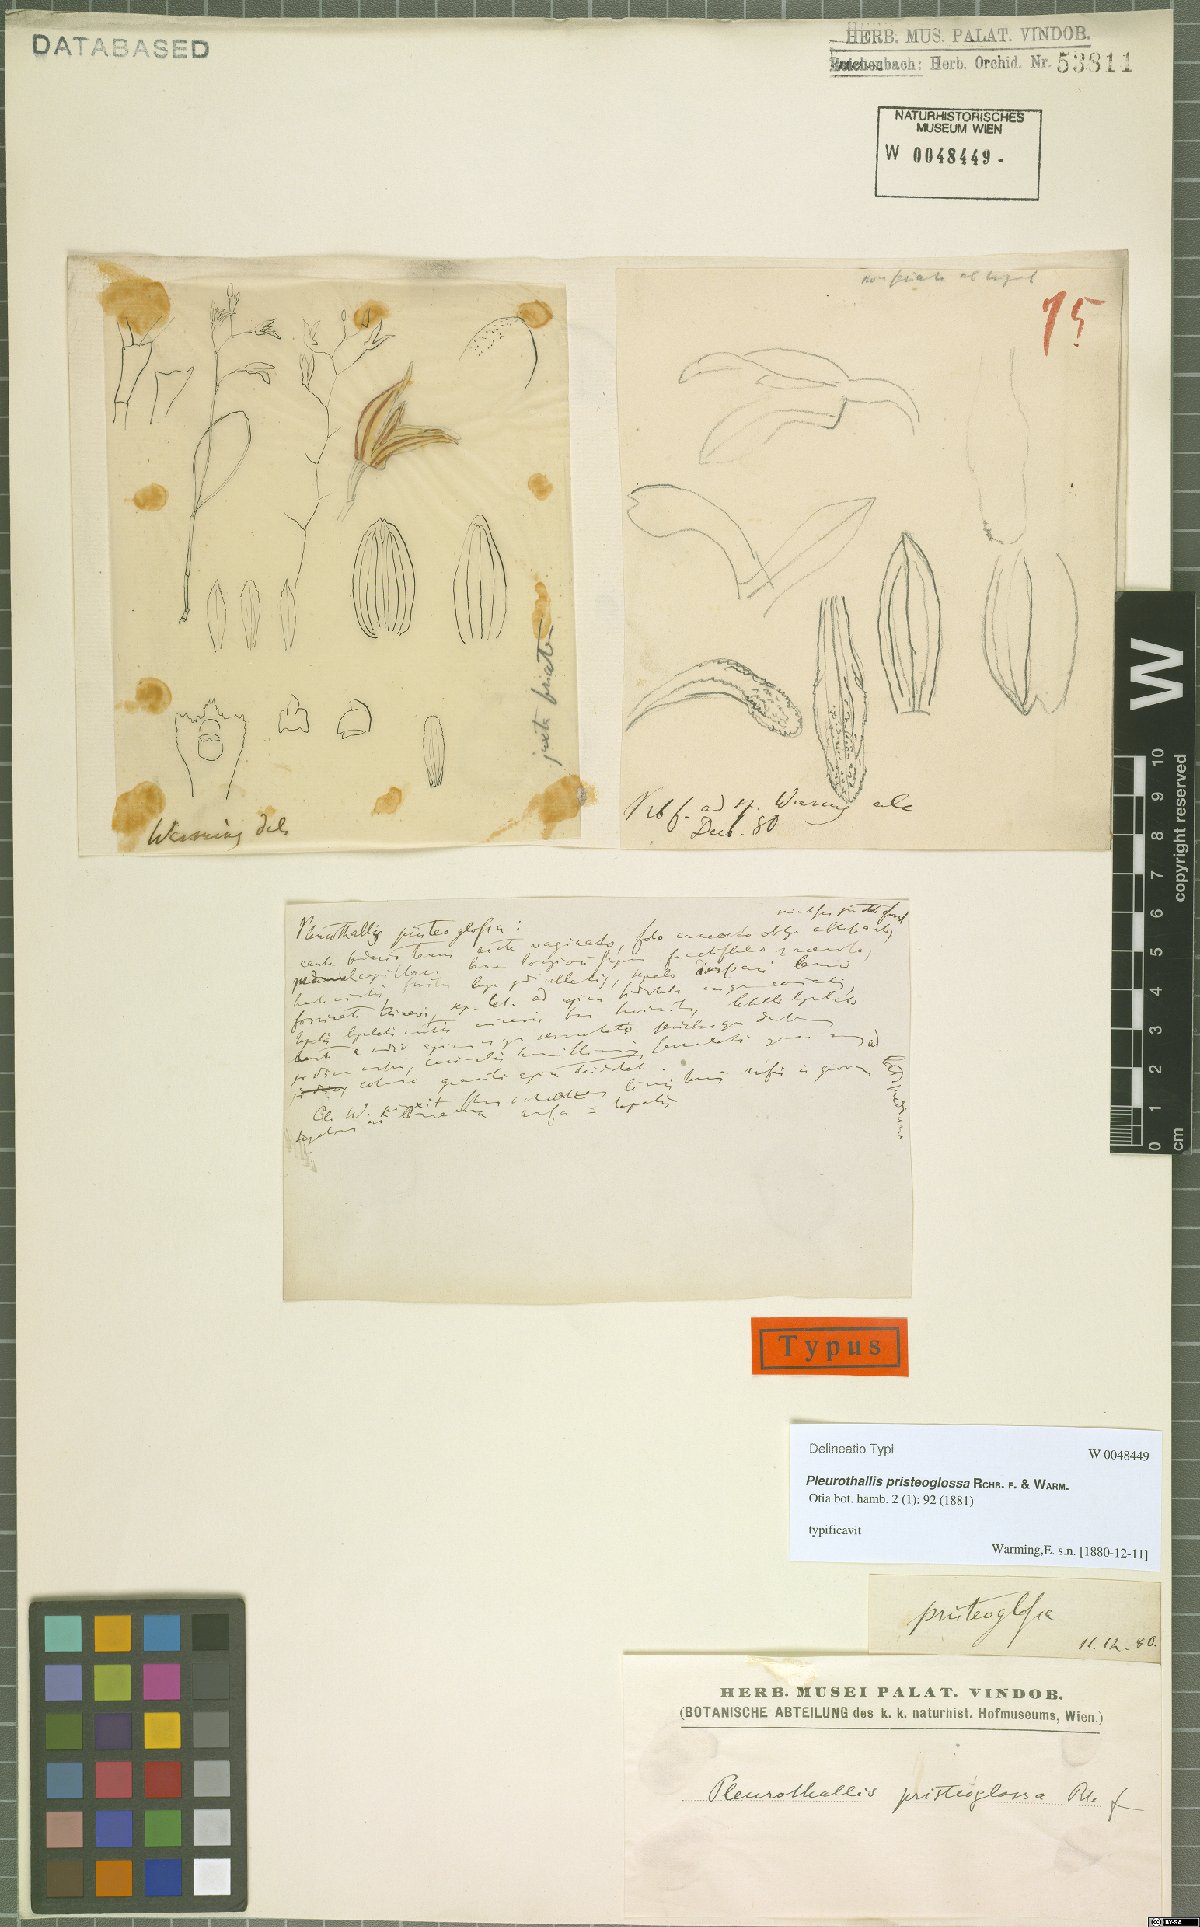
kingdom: Plantae
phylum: Tracheophyta
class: Liliopsida
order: Asparagales
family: Orchidaceae
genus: Pabstiella
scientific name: Pabstiella pristeoglossa
